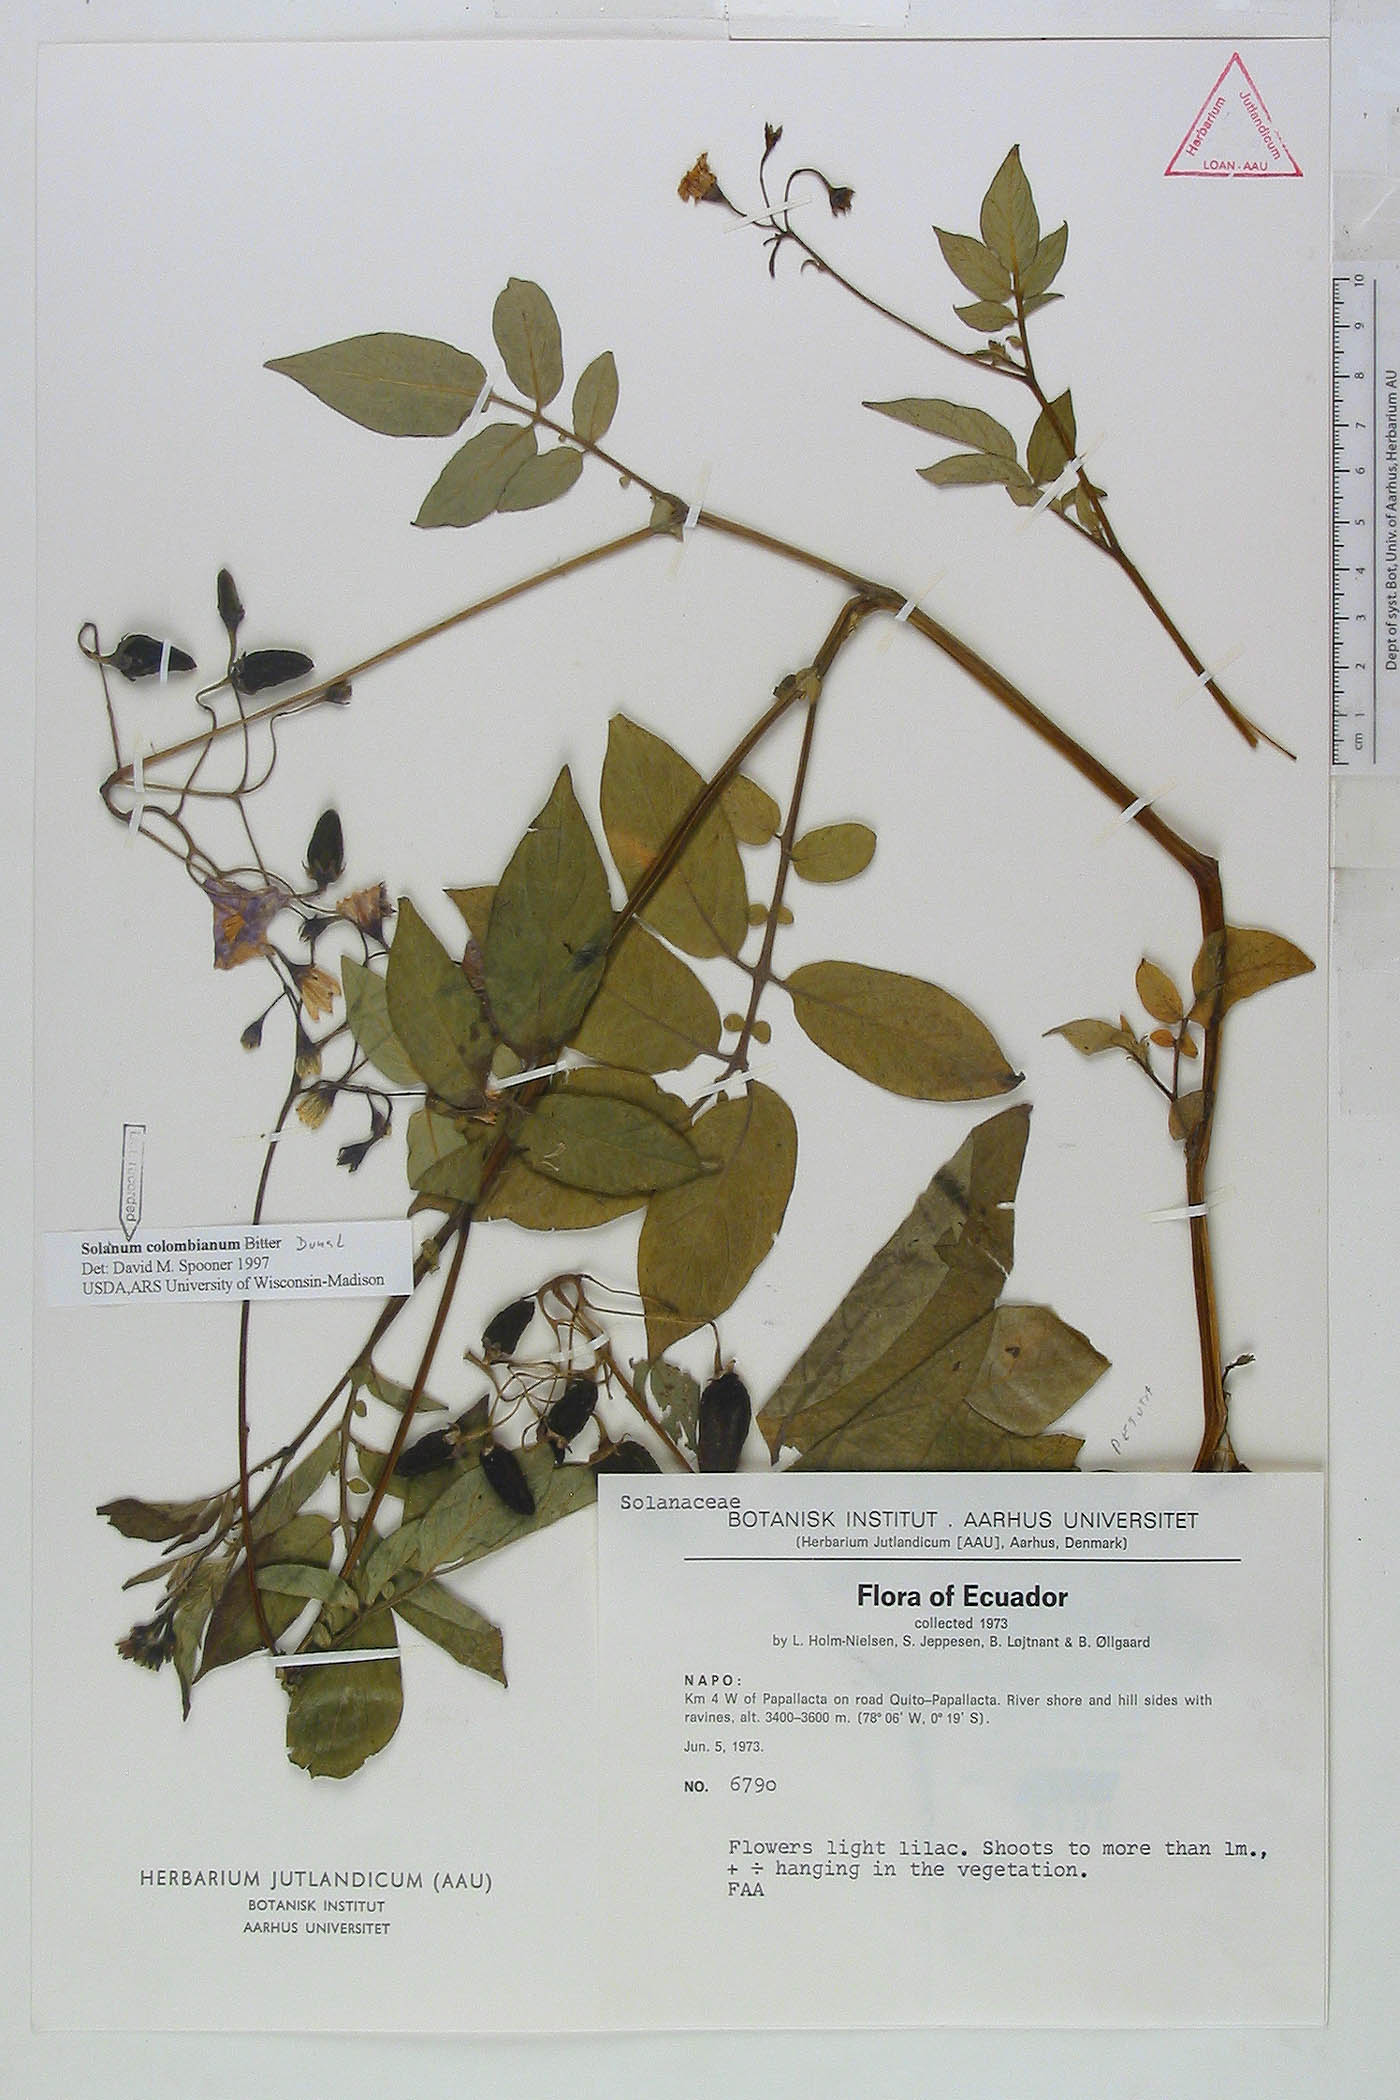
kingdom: Plantae
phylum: Tracheophyta
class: Magnoliopsida
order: Solanales
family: Solanaceae
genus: Solanum
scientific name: Solanum colombianum
